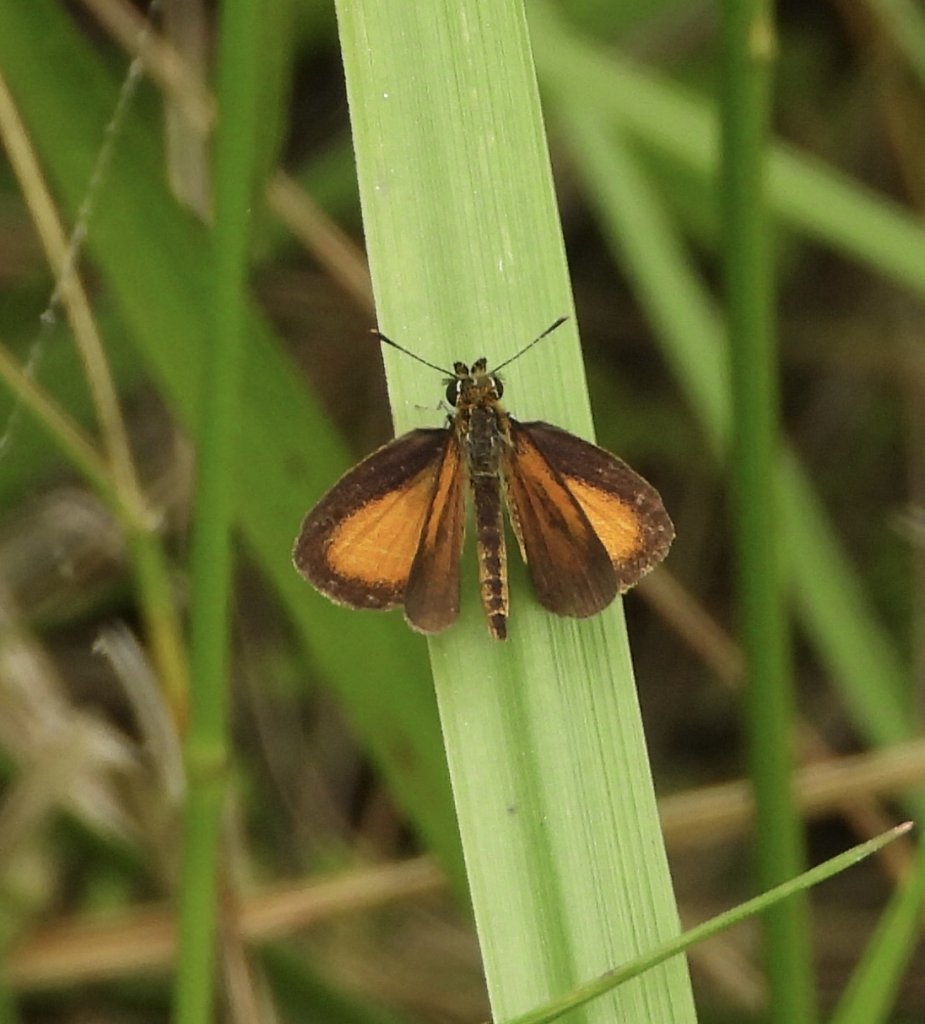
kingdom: Animalia
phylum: Arthropoda
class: Insecta
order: Lepidoptera
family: Hesperiidae
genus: Ancyloxypha
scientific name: Ancyloxypha numitor
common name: Least Skipper
